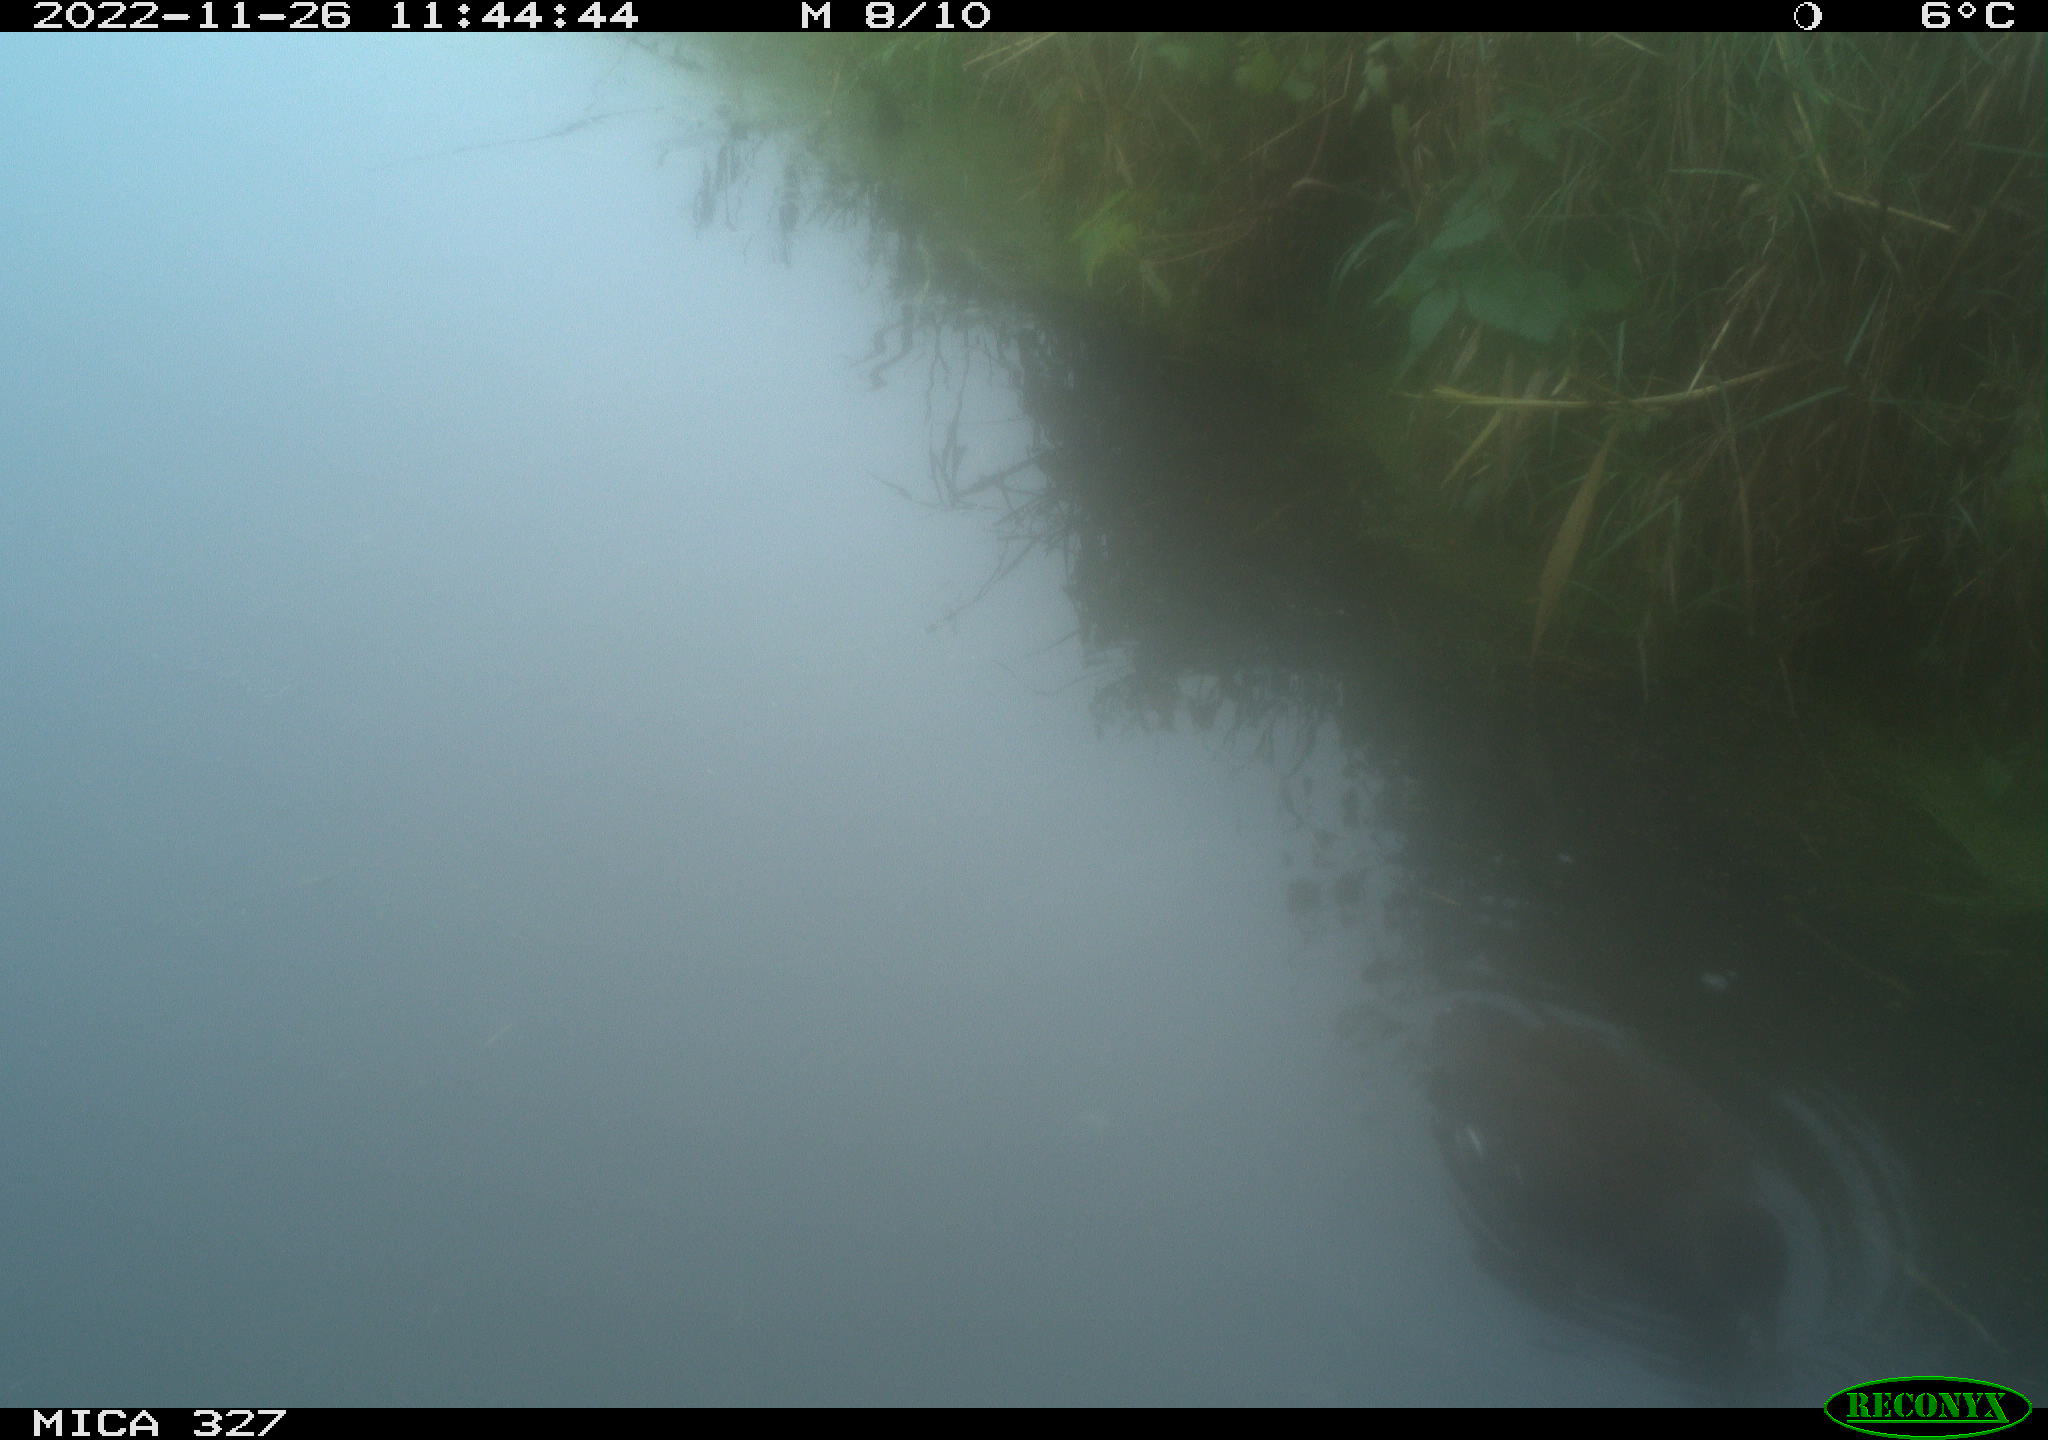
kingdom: Animalia
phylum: Chordata
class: Aves
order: Gruiformes
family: Rallidae
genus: Gallinula
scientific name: Gallinula chloropus
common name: Common moorhen
